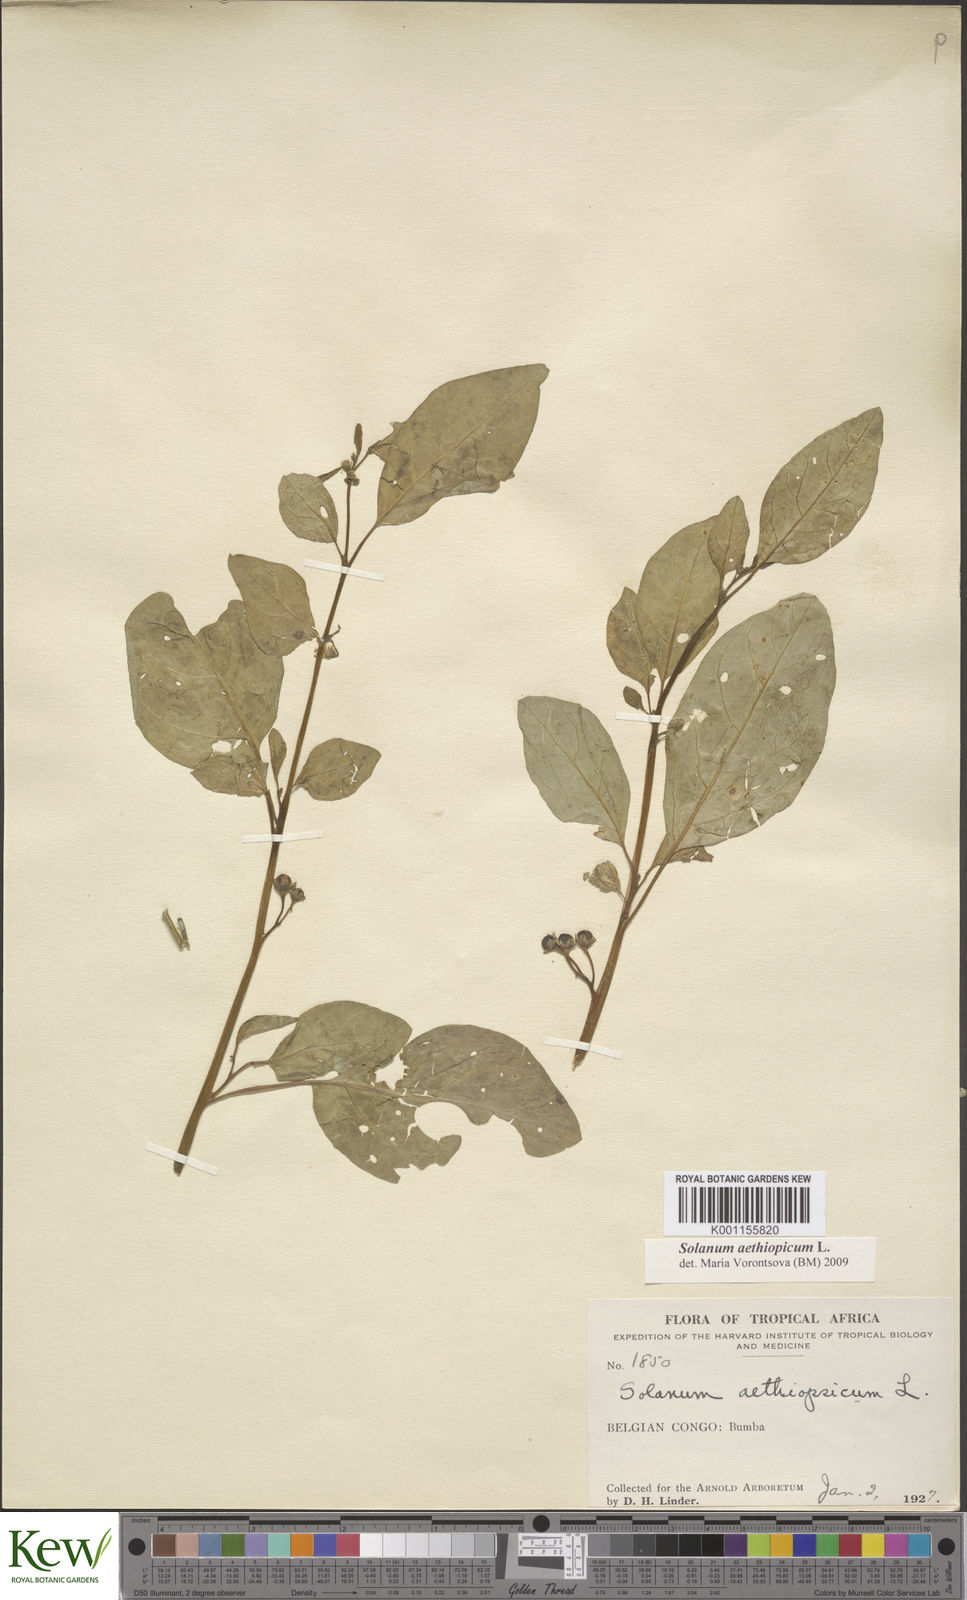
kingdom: Plantae
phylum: Tracheophyta
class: Magnoliopsida
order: Solanales
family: Solanaceae
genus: Solanum
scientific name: Solanum aethiopicum
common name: Gilo
